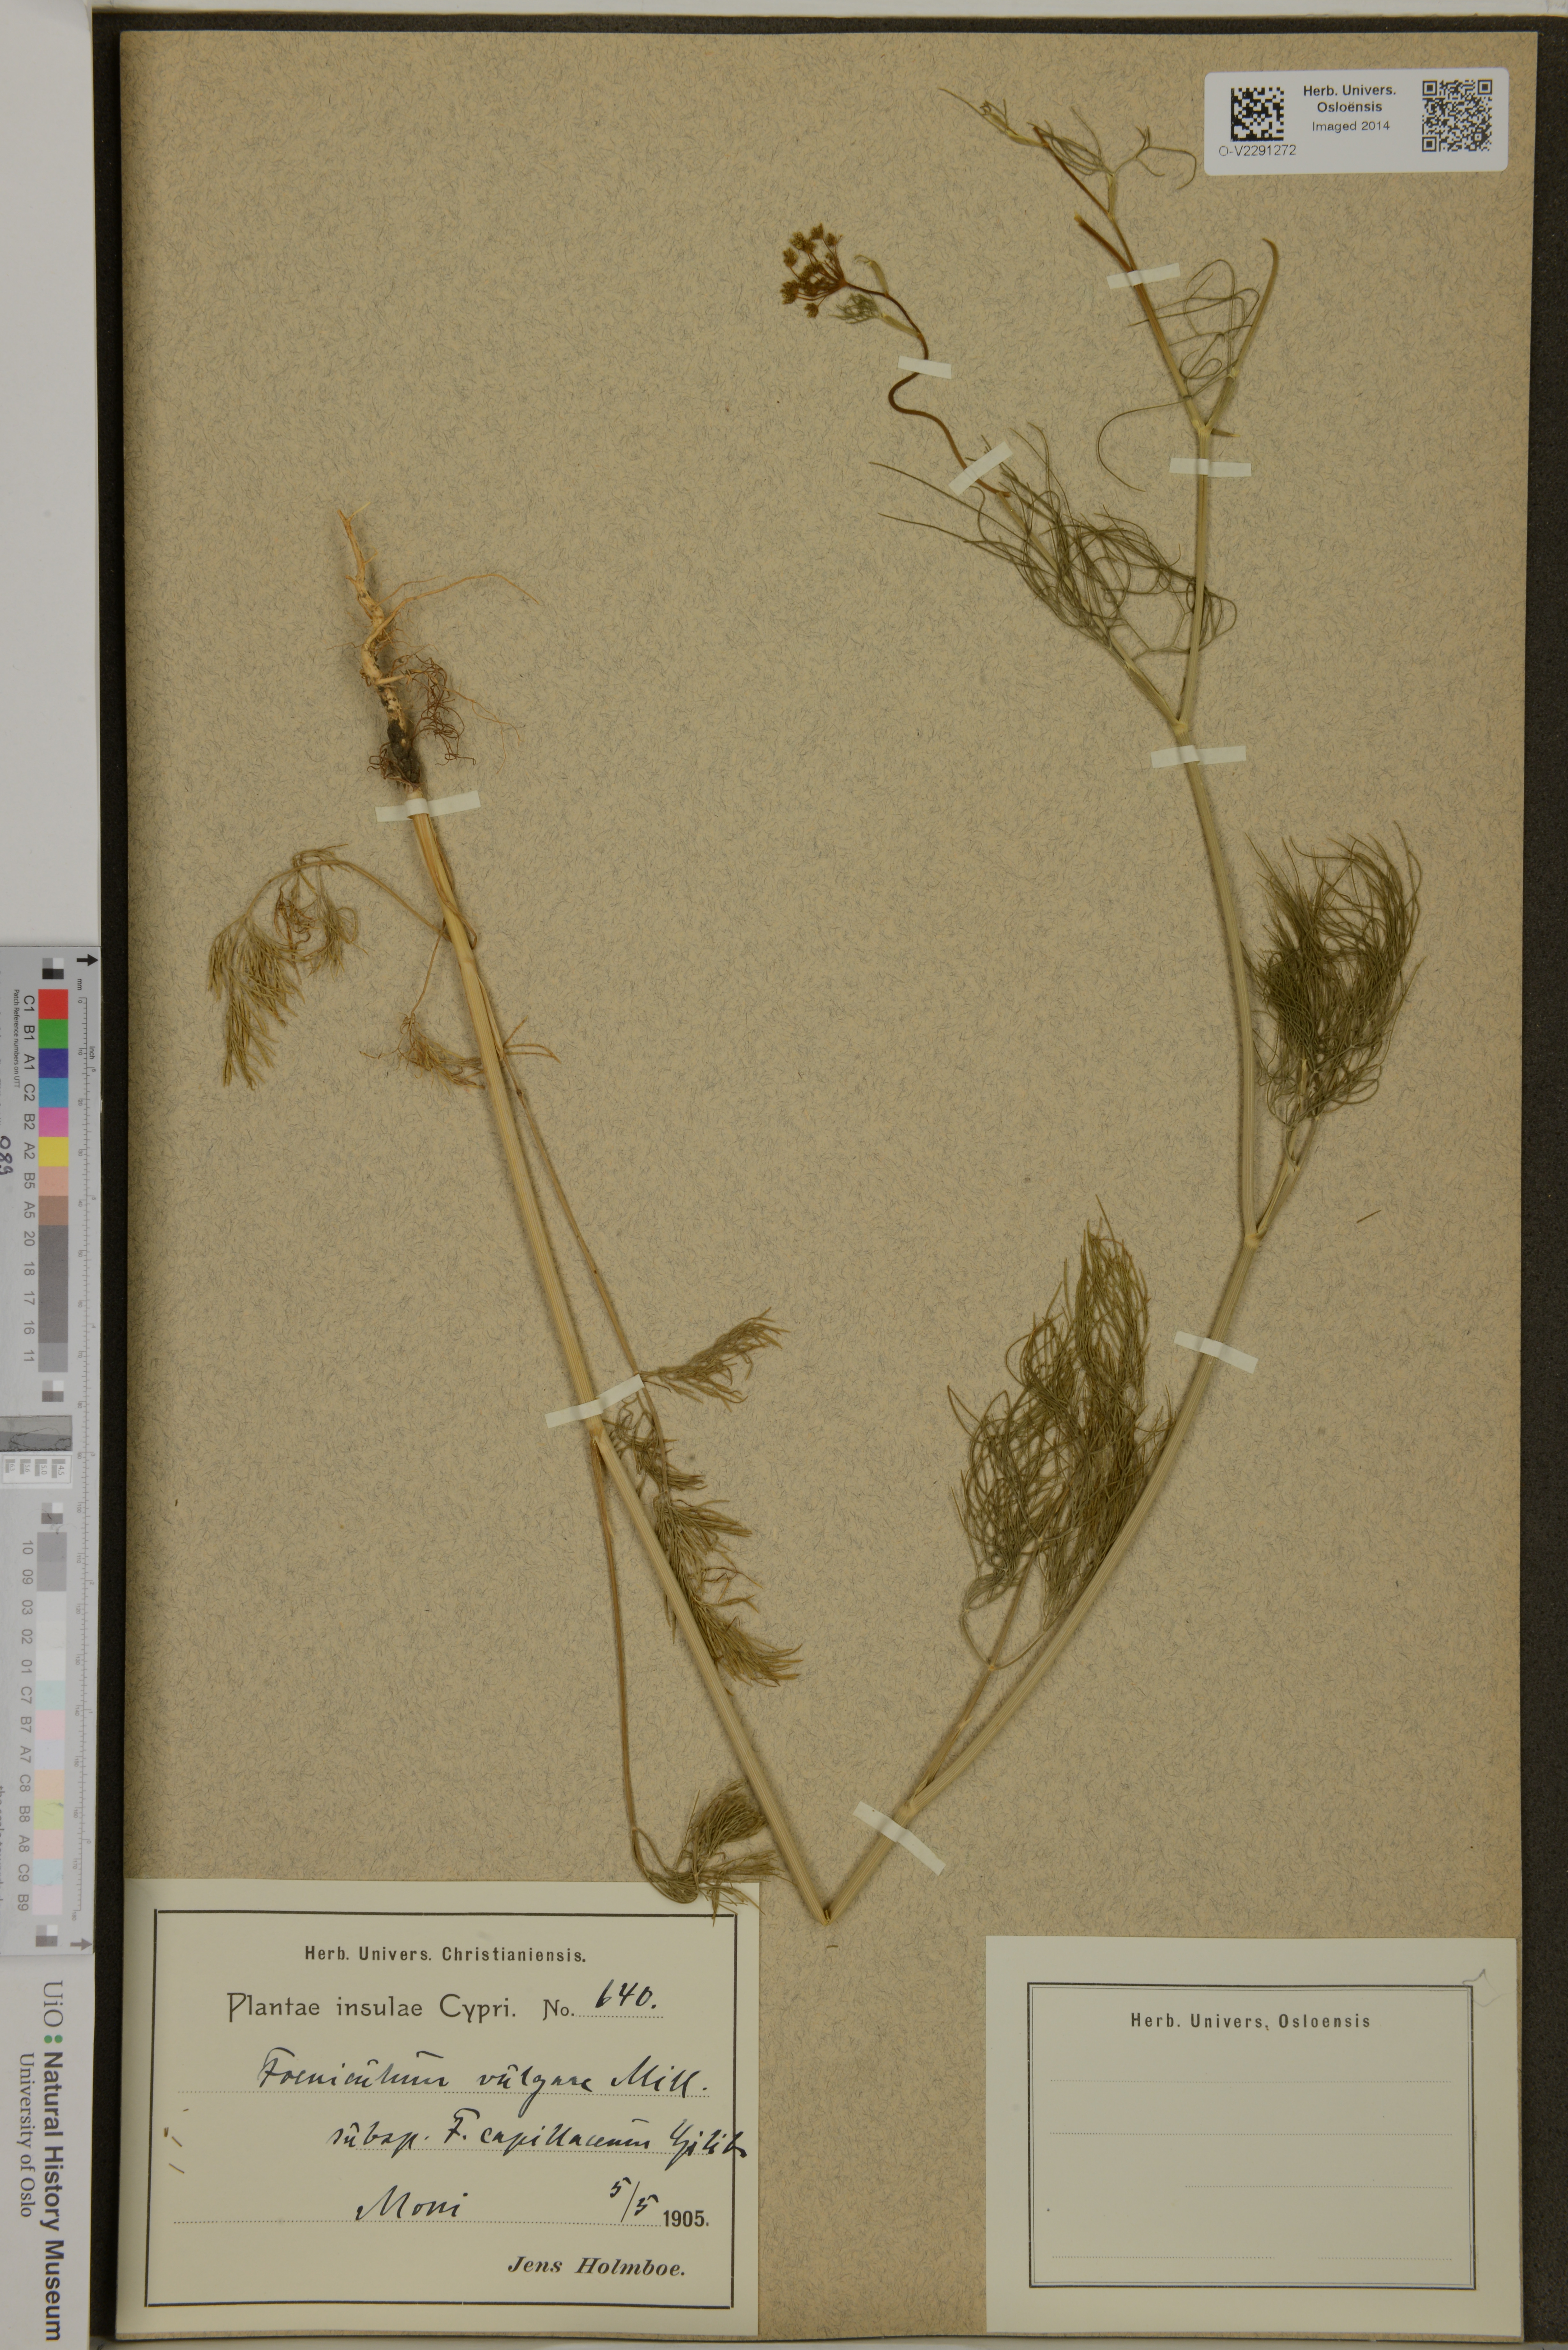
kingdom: Plantae
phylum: Tracheophyta
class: Magnoliopsida
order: Apiales
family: Apiaceae
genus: Foeniculum
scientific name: Foeniculum vulgare
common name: Fennel
